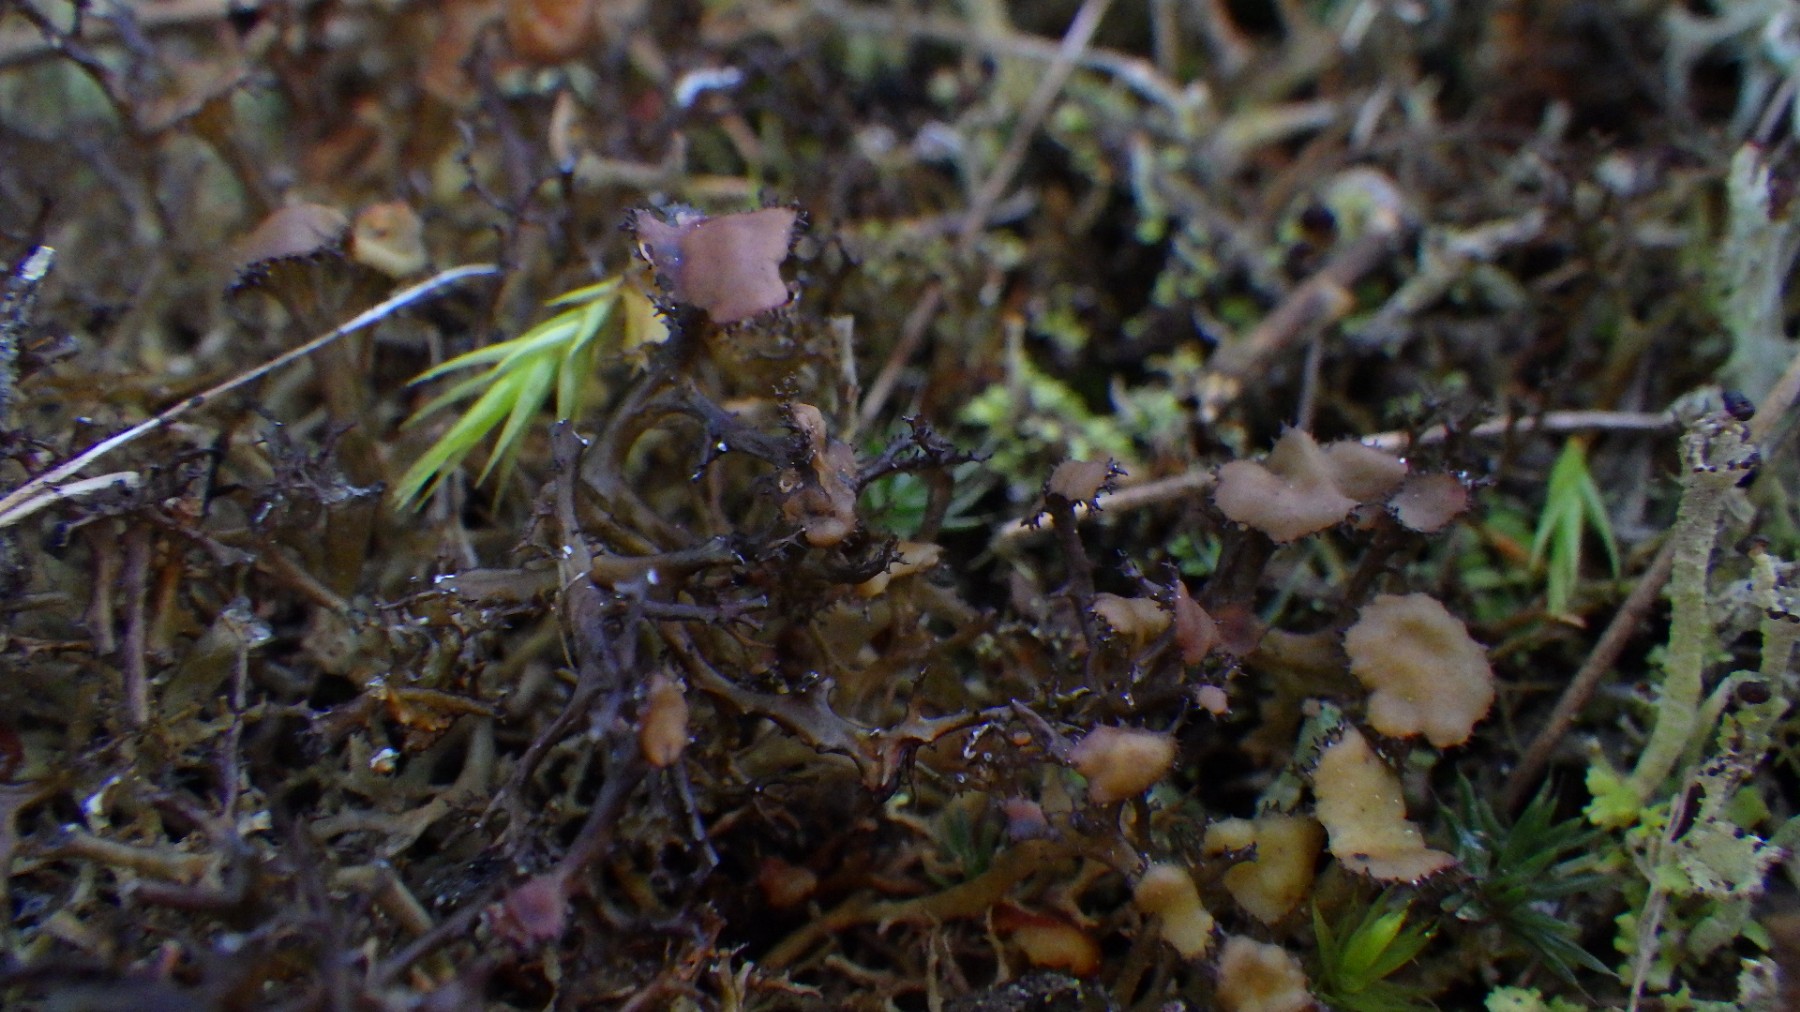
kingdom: Fungi
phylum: Ascomycota
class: Lecanoromycetes
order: Lecanorales
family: Parmeliaceae
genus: Cetraria
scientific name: Cetraria muricata
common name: tue-tjørnelav
